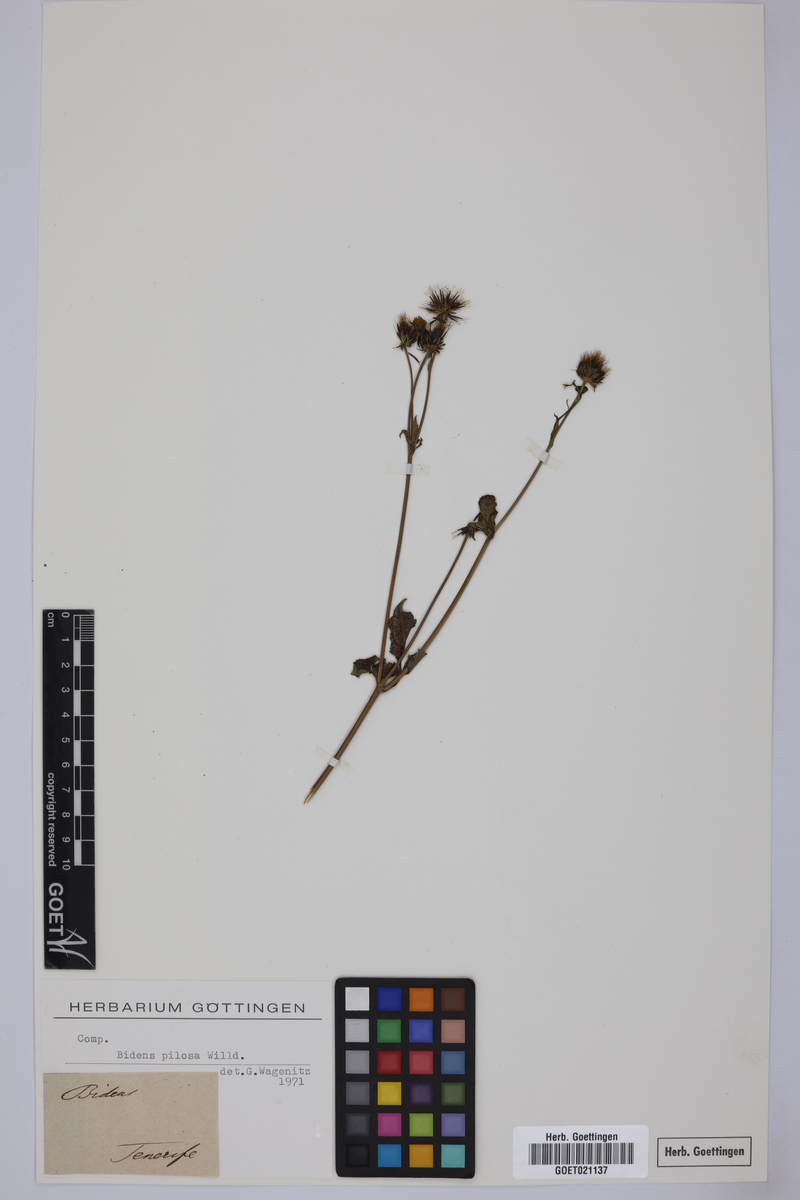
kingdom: Plantae
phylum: Tracheophyta
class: Magnoliopsida
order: Asterales
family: Asteraceae
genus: Bidens
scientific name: Bidens pilosa
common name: Black-jack
